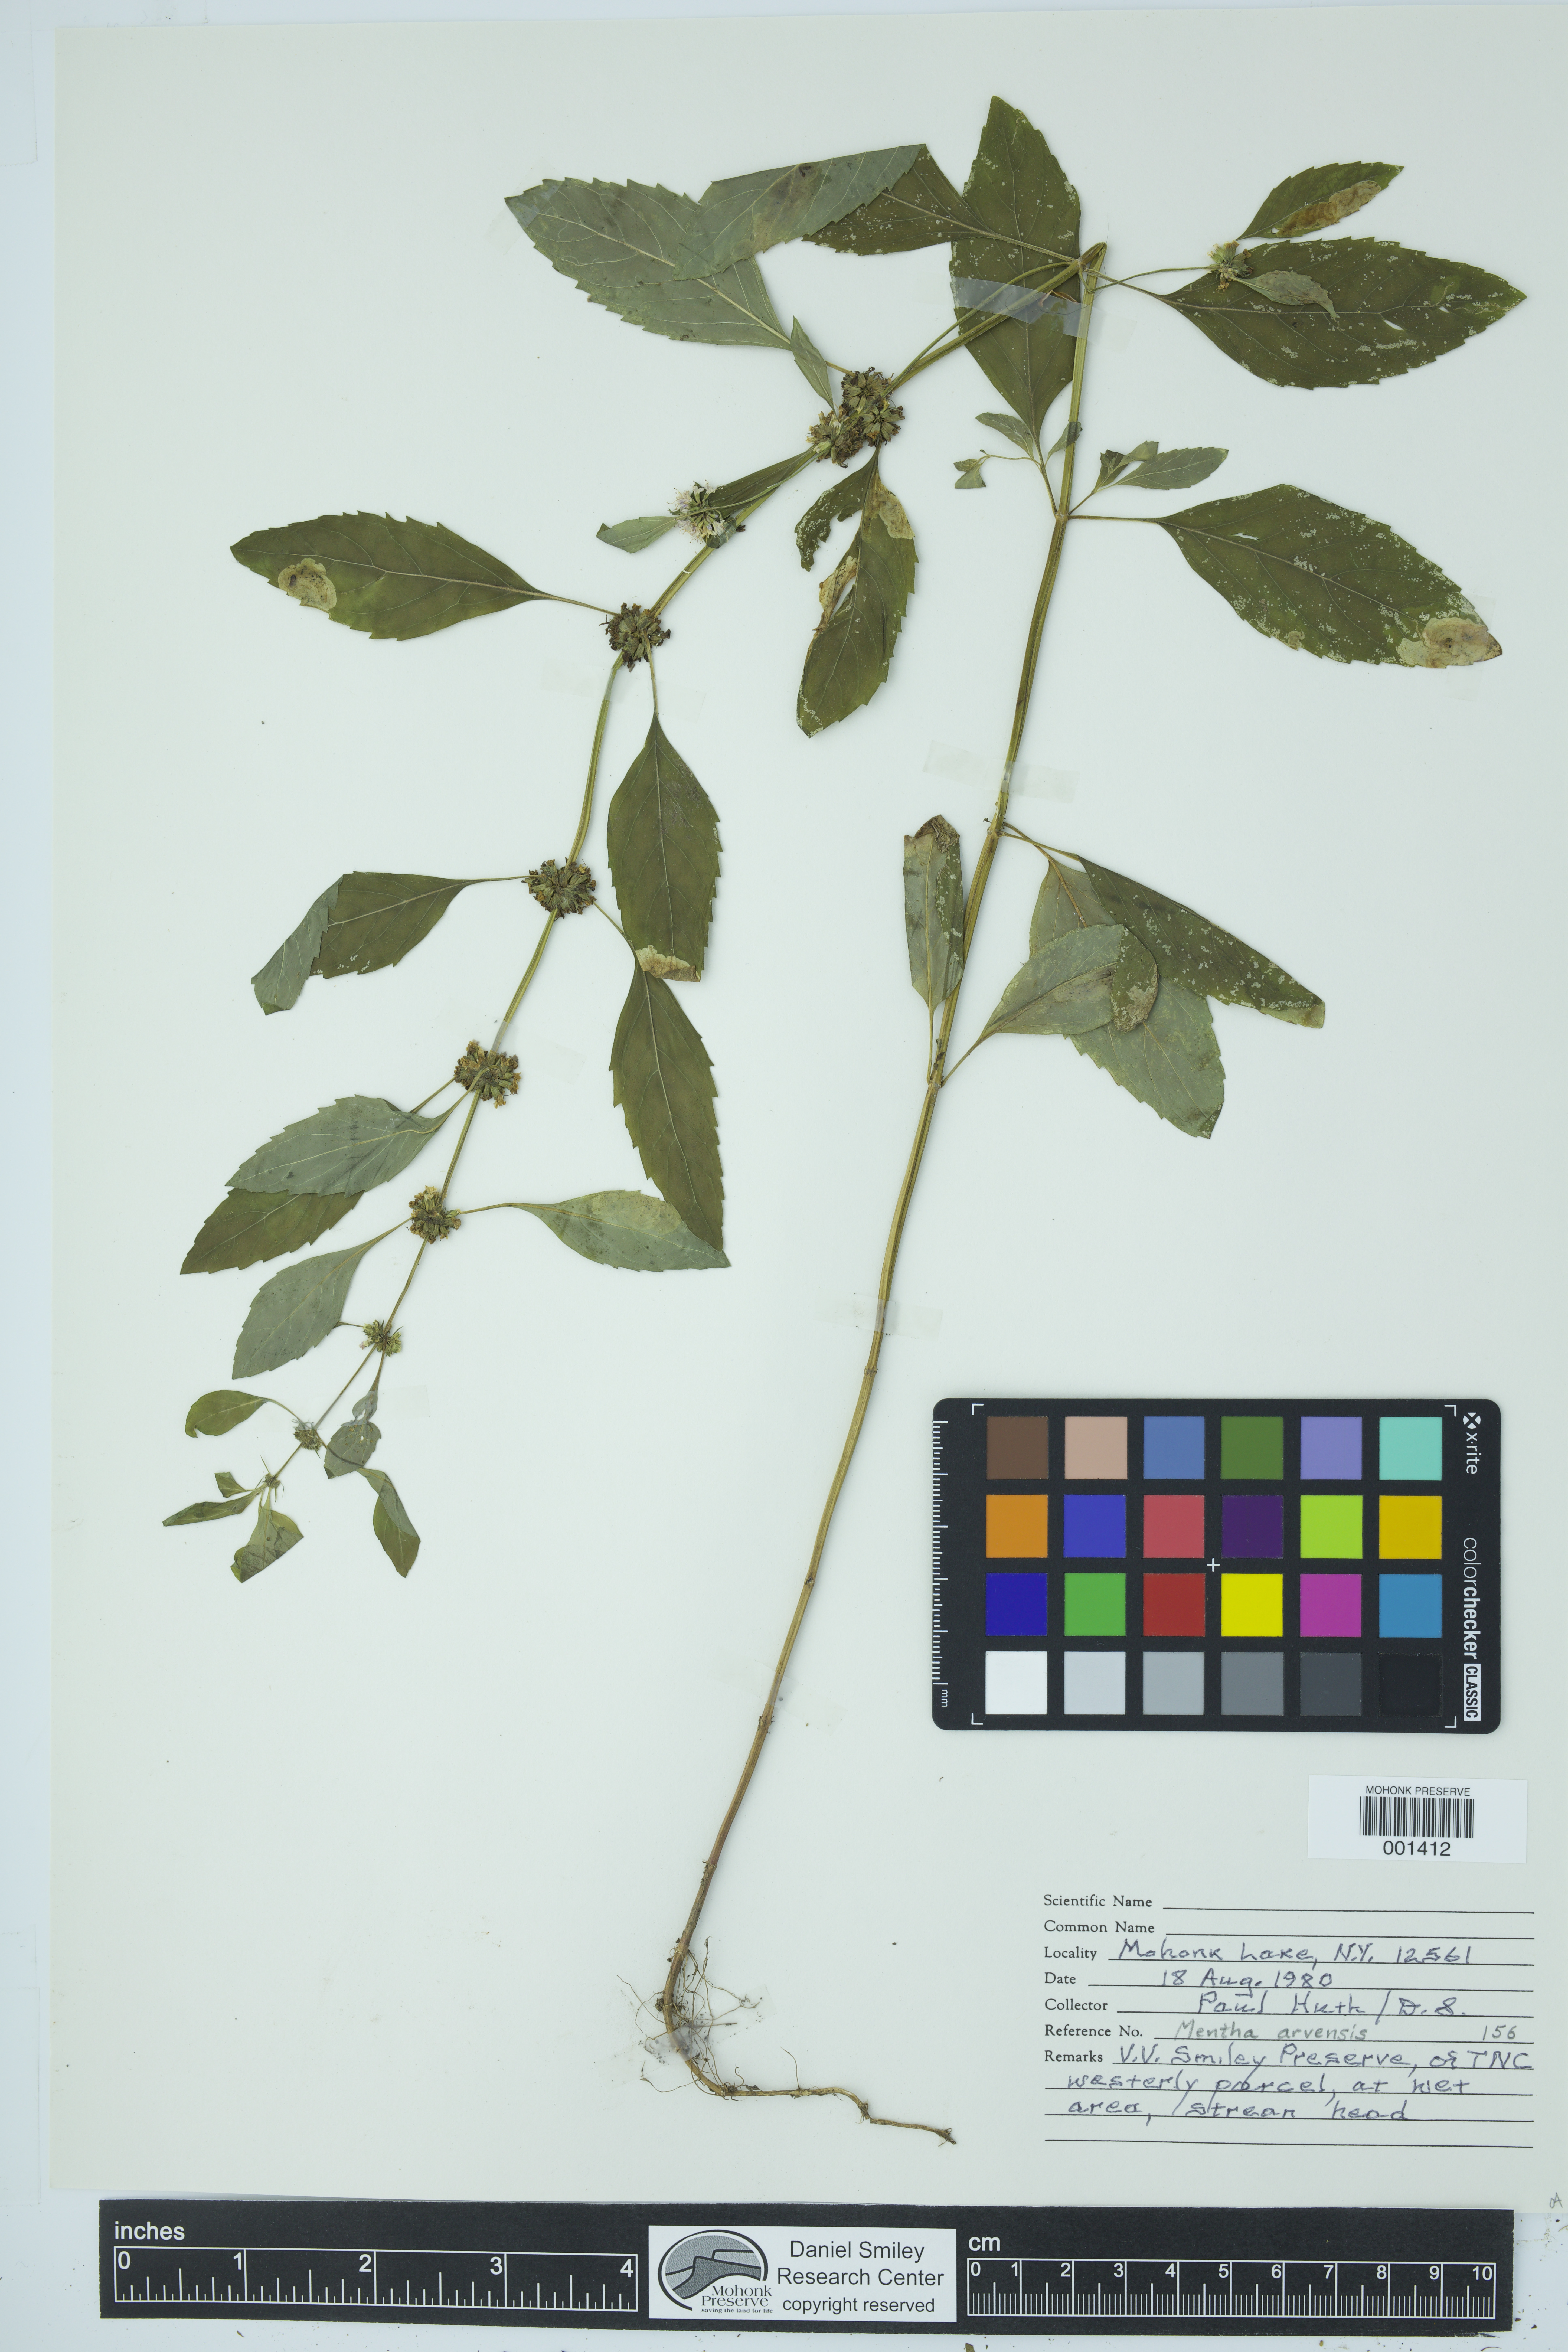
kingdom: Plantae
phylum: Tracheophyta
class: Magnoliopsida
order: Lamiales
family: Lamiaceae
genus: Mentha
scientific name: Mentha arvensis
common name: Corn mint
